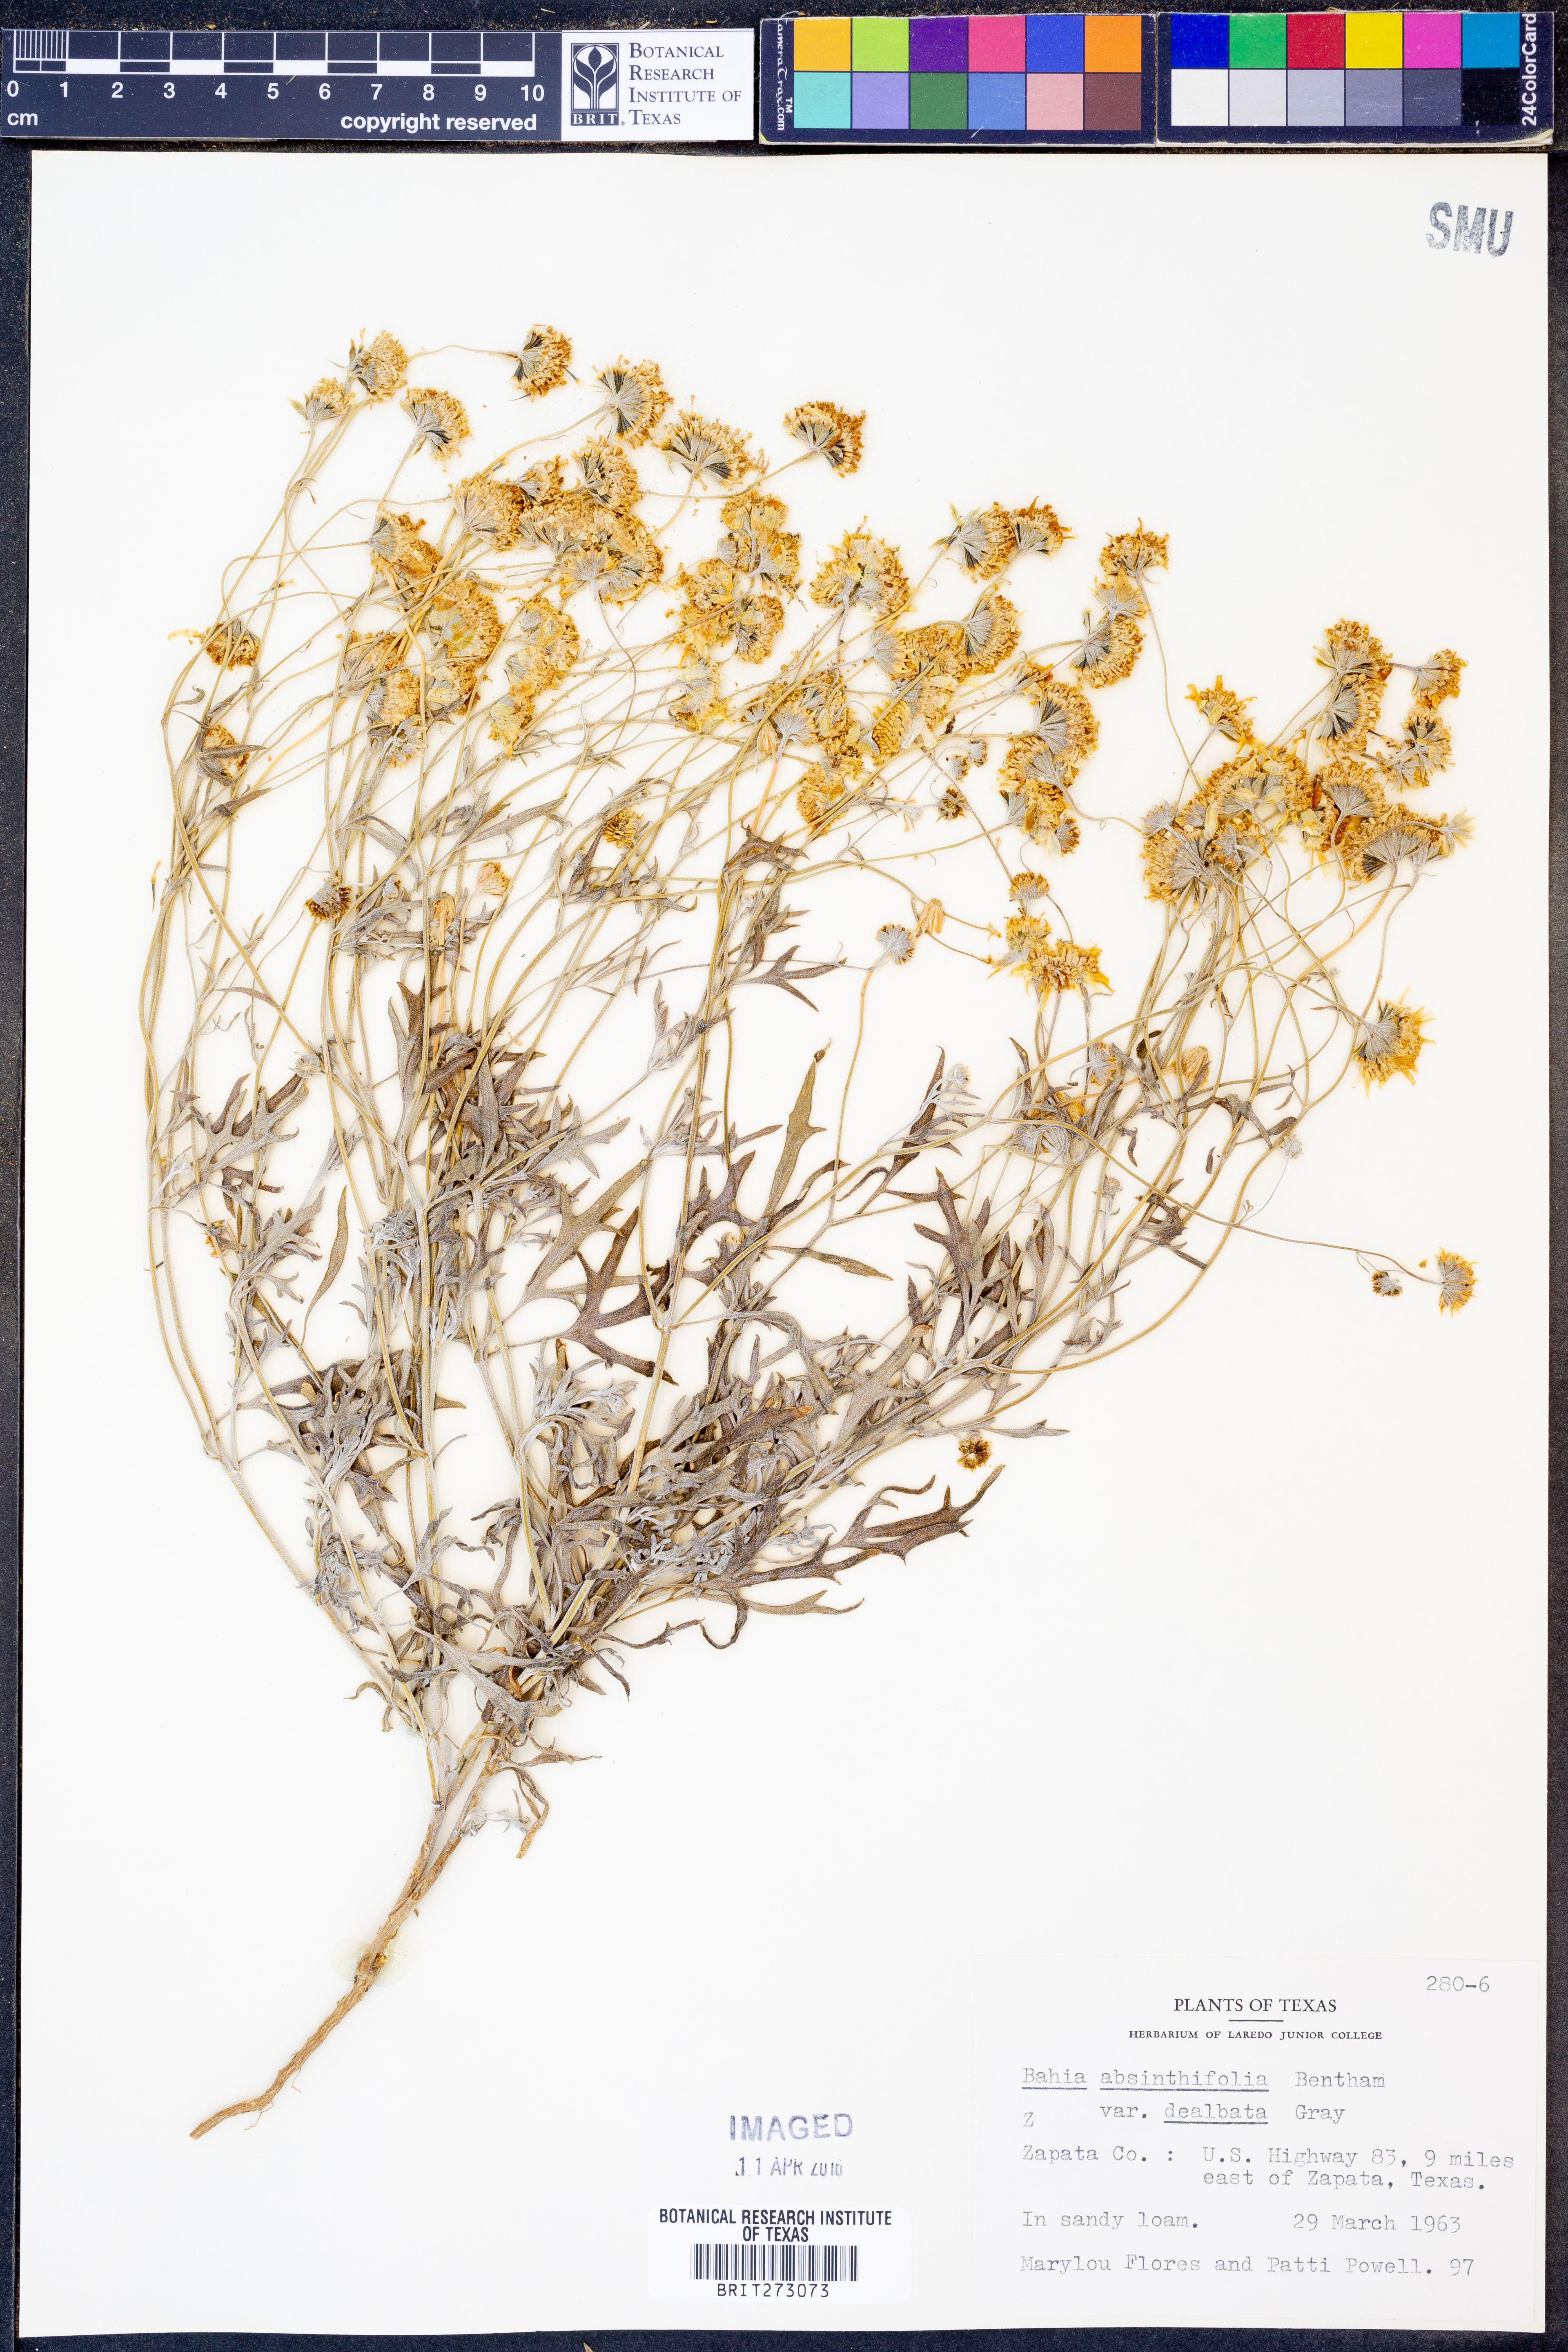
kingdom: Plantae
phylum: Tracheophyta
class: Magnoliopsida
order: Asterales
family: Asteraceae
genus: Picradeniopsis
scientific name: Picradeniopsis absinthifolia
